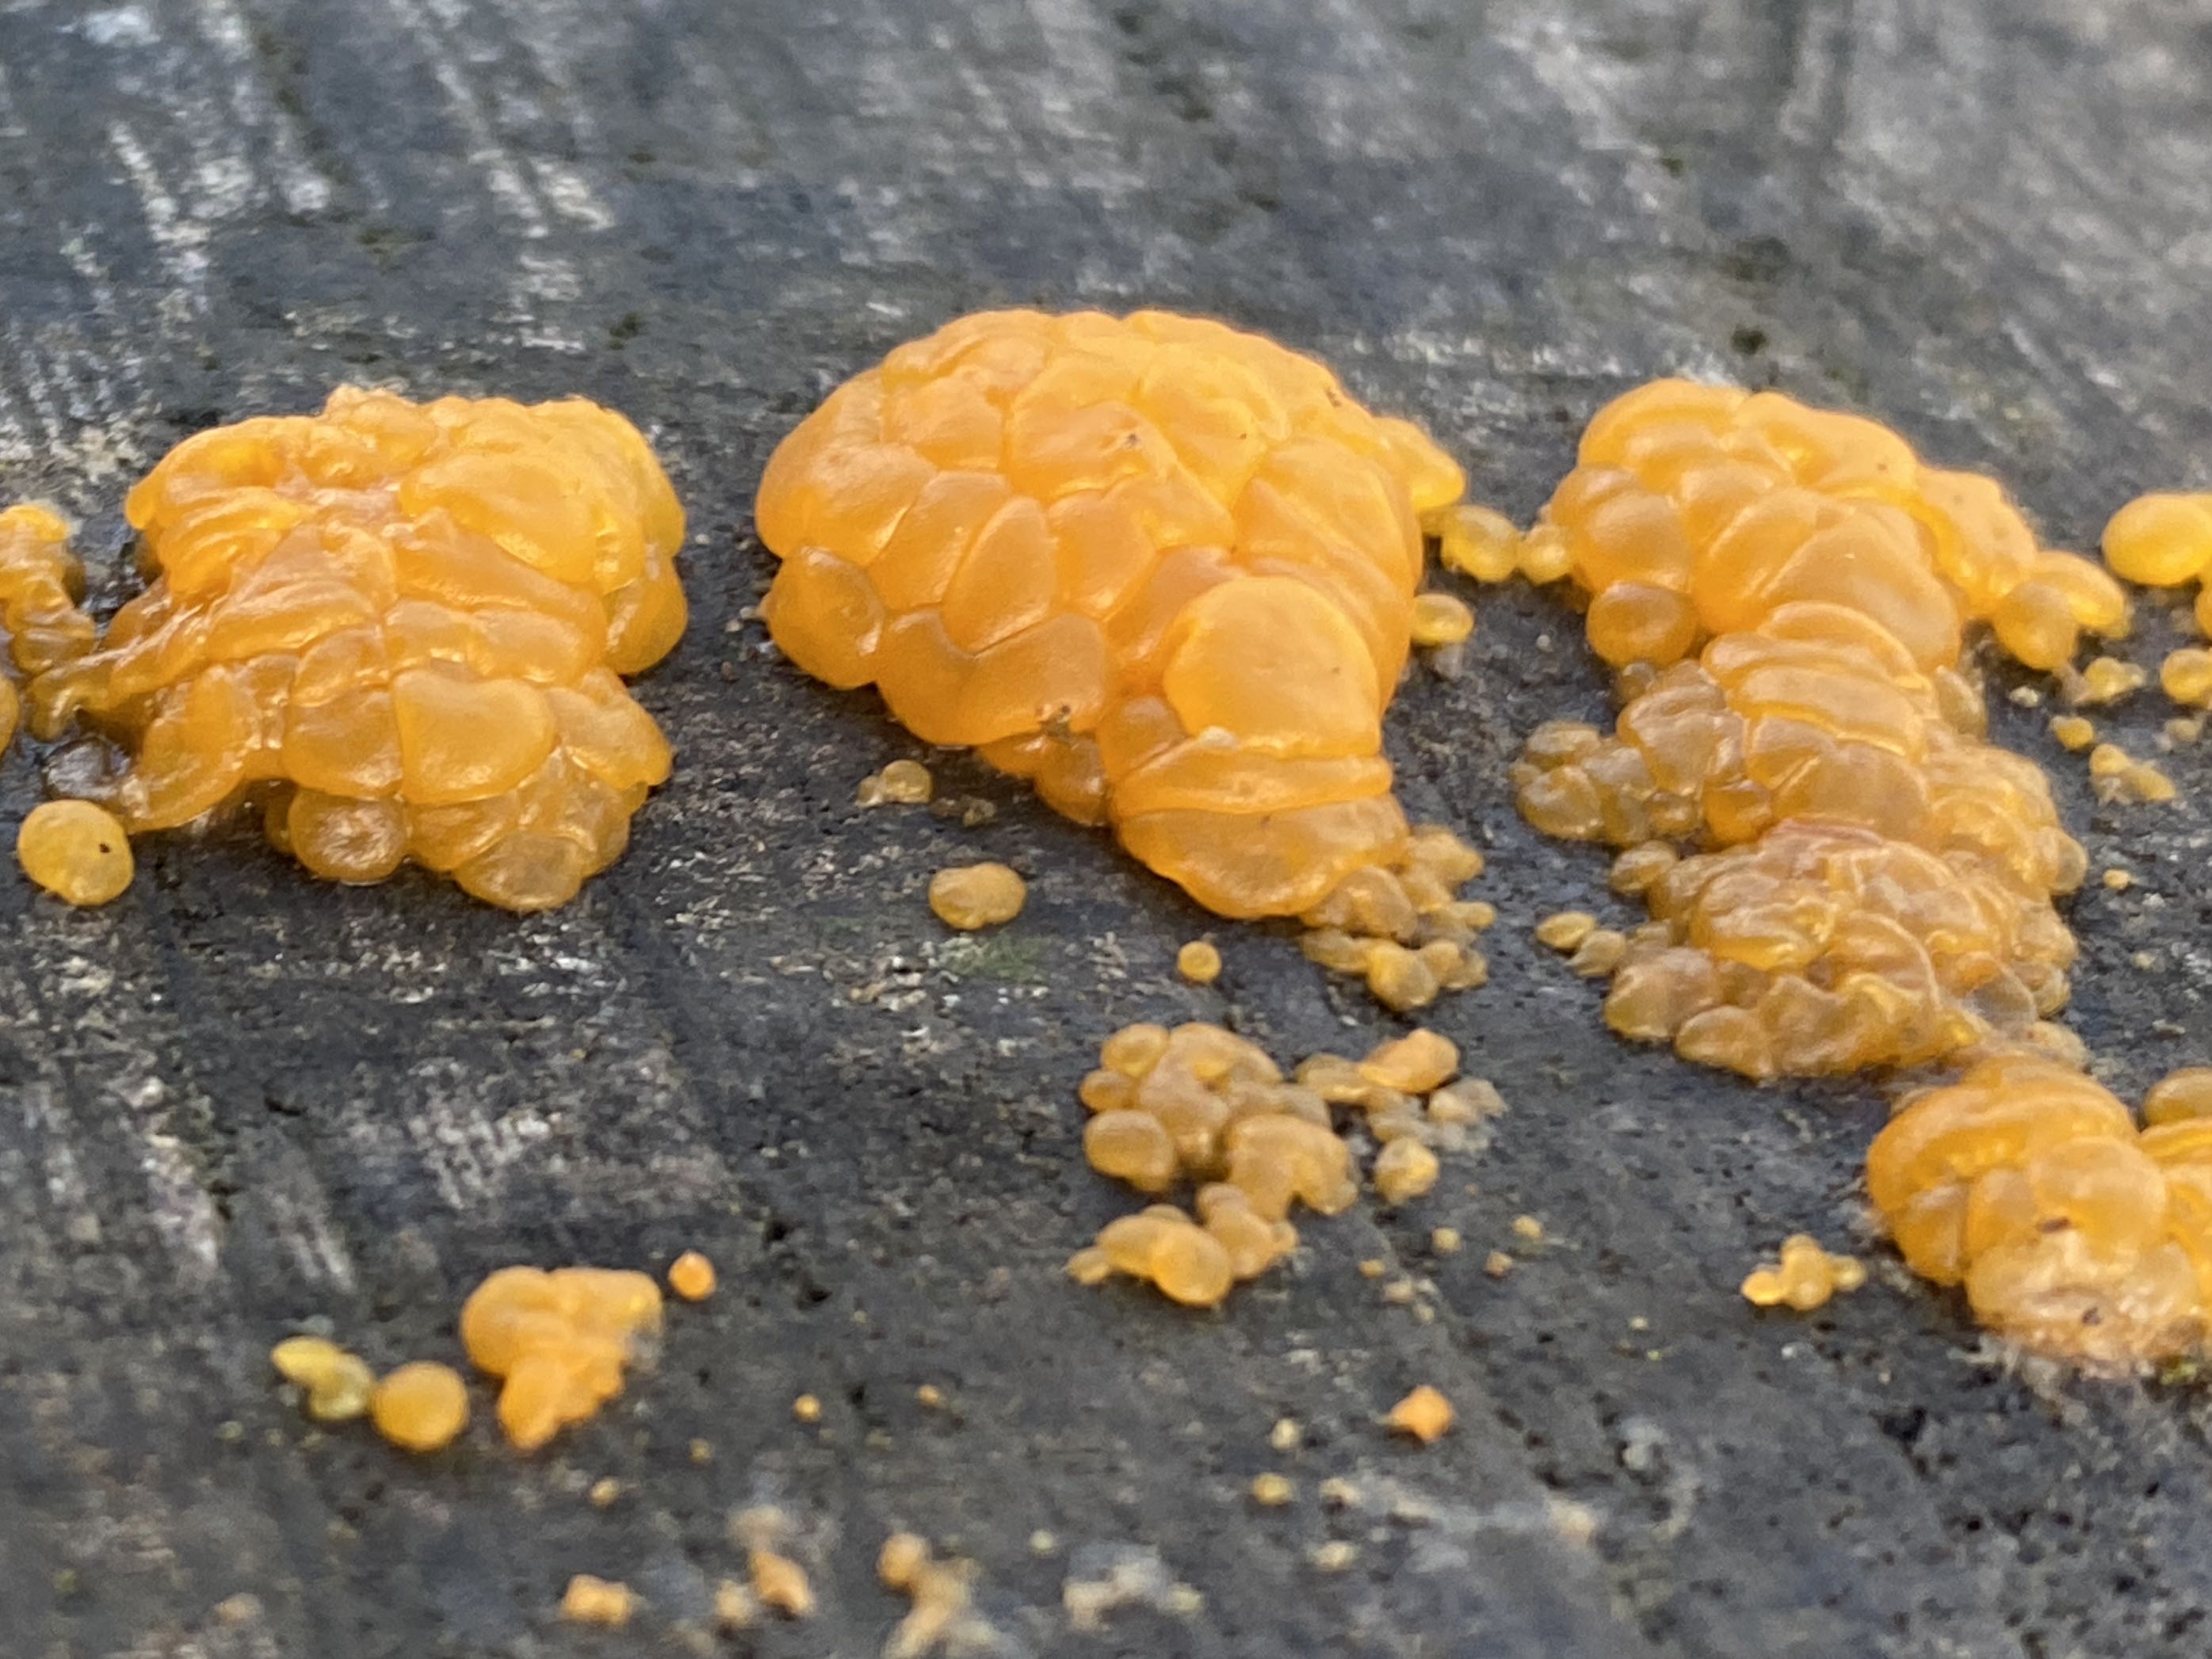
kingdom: Fungi
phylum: Basidiomycota
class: Dacrymycetes
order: Dacrymycetales
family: Dacrymycetaceae
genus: Dacrymyces
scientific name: Dacrymyces lacrymalis
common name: rynket tåresvamp
